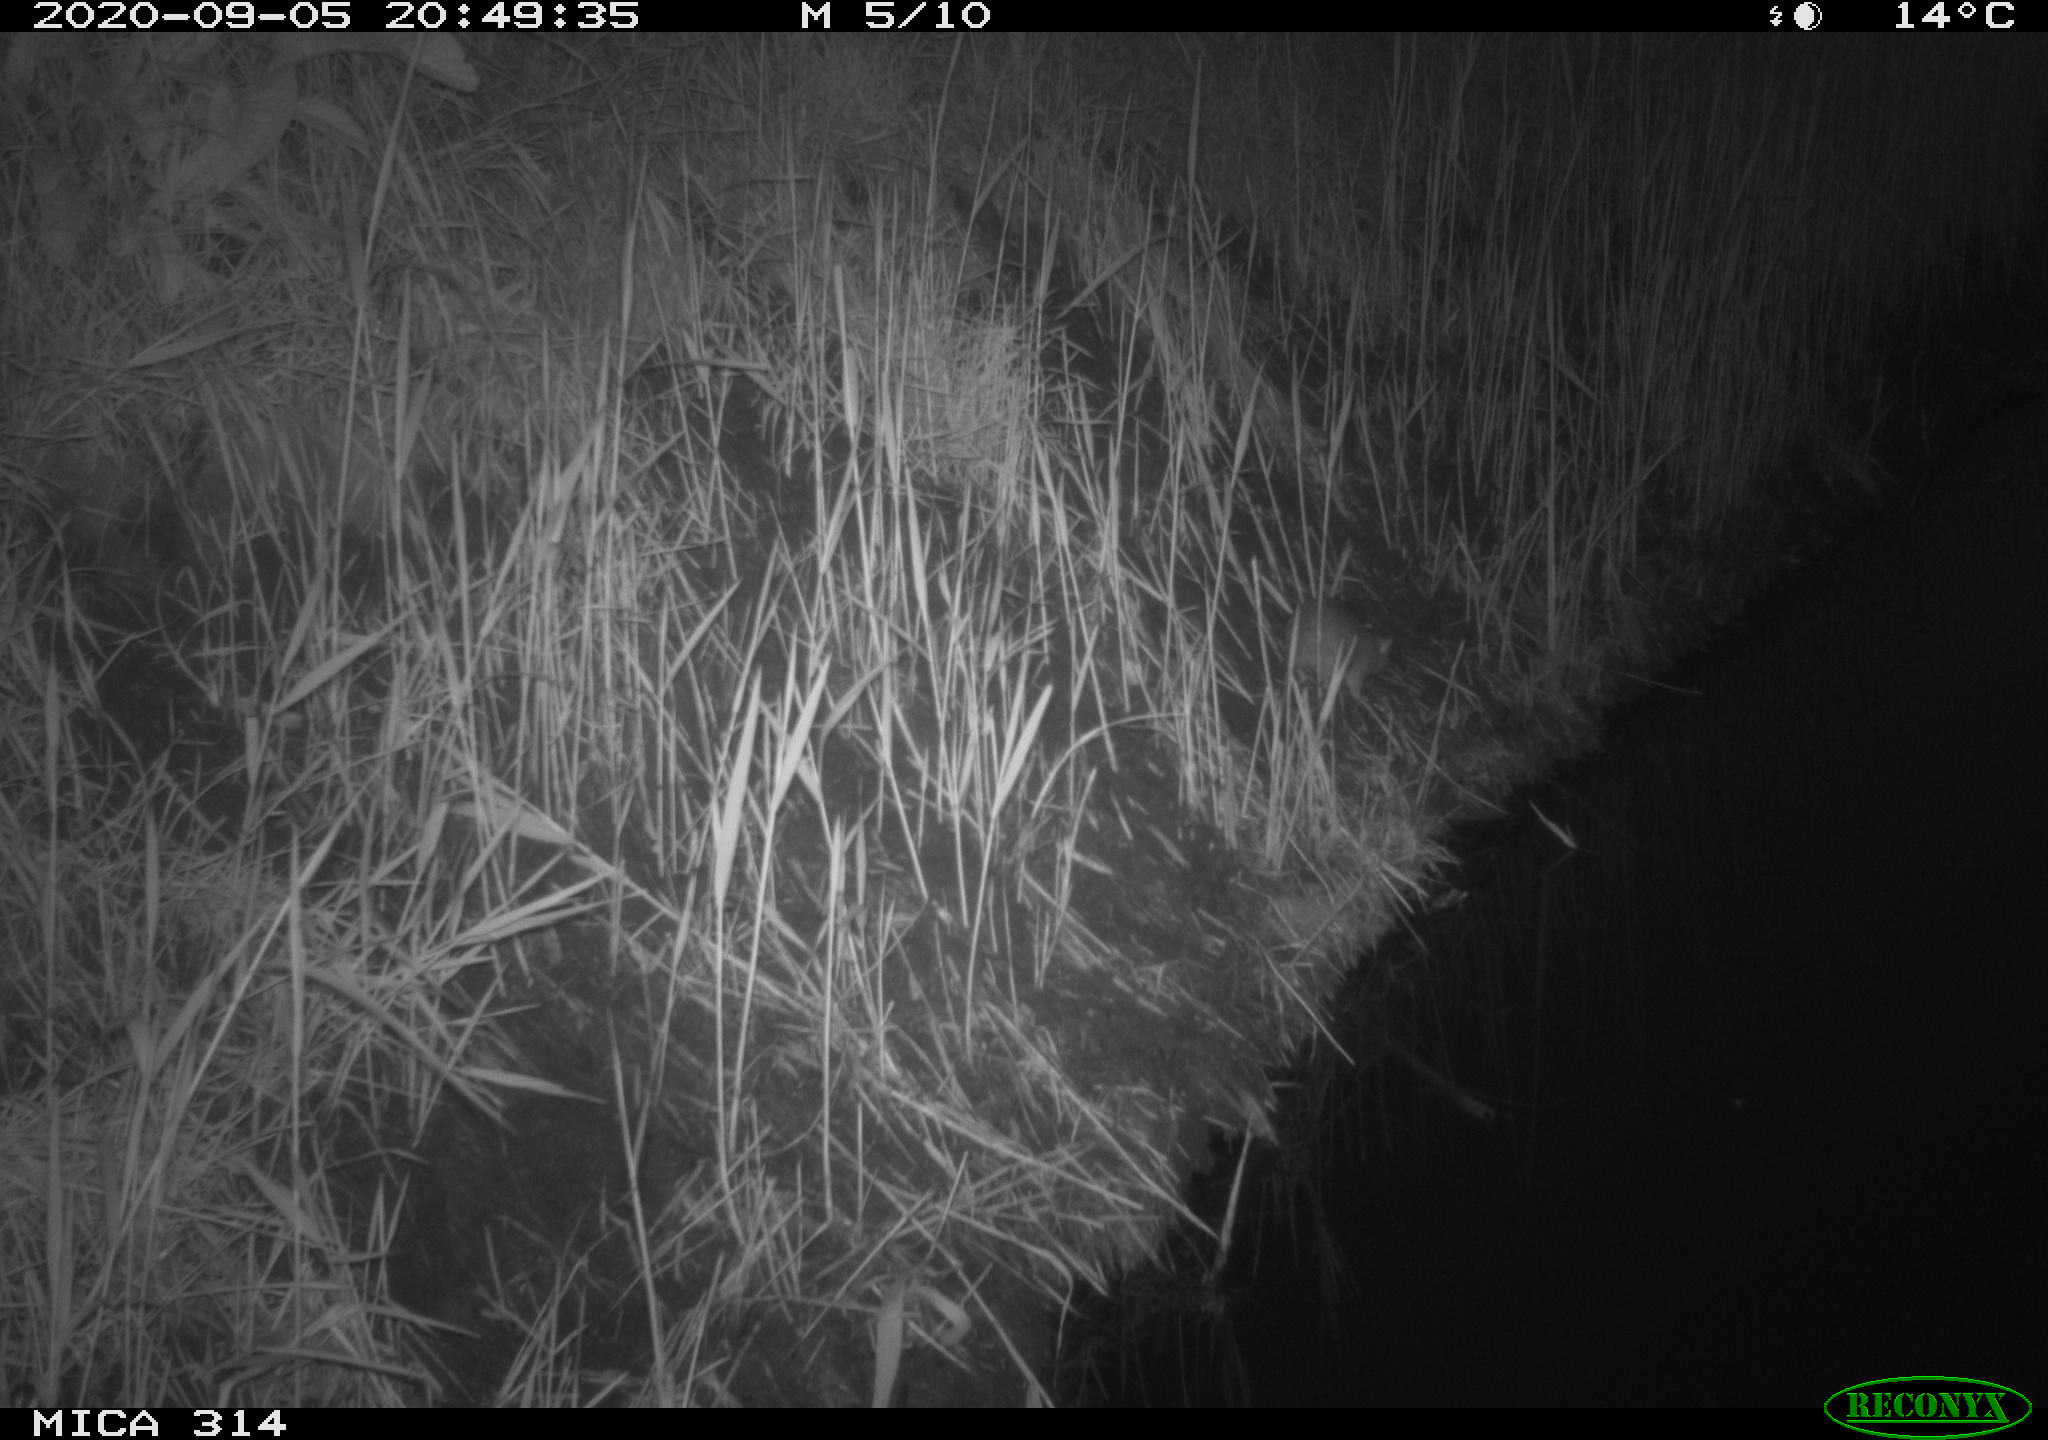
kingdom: Animalia
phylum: Chordata
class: Mammalia
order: Rodentia
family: Muridae
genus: Rattus
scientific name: Rattus norvegicus
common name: Brown rat
